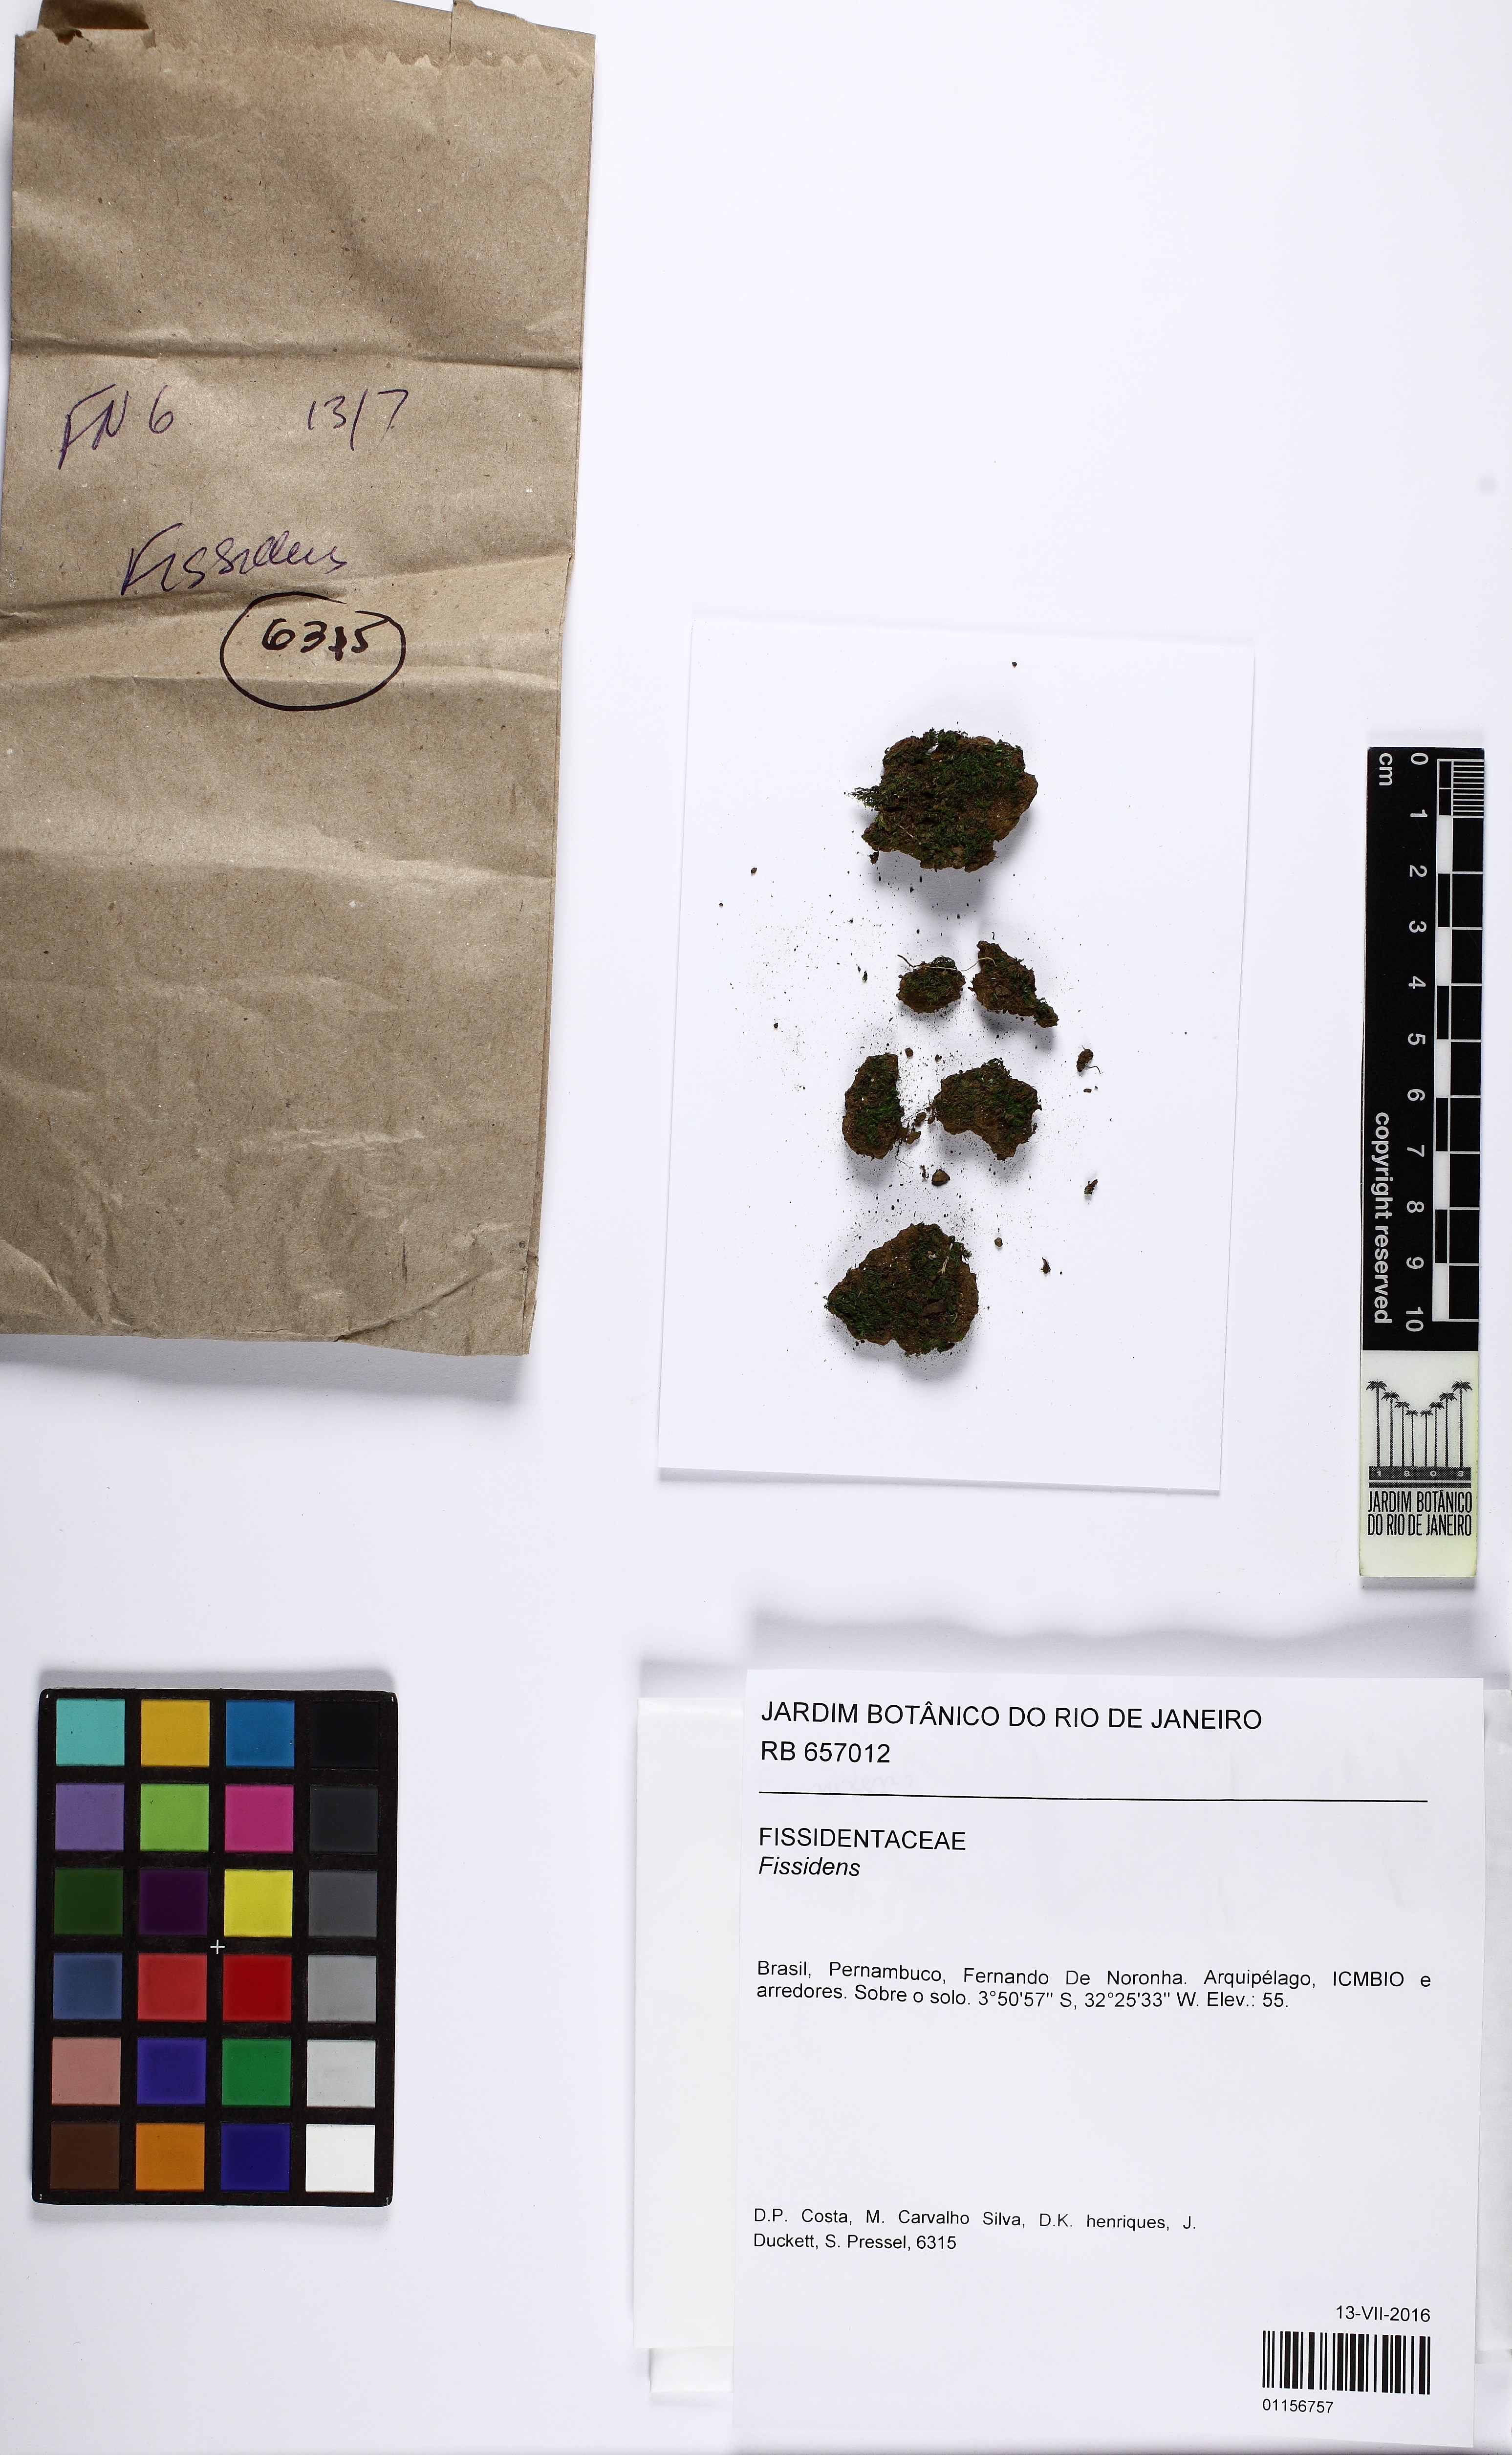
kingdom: Plantae
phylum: Bryophyta
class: Bryopsida
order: Dicranales
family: Fissidentaceae
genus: Fissidens
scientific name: Fissidens
